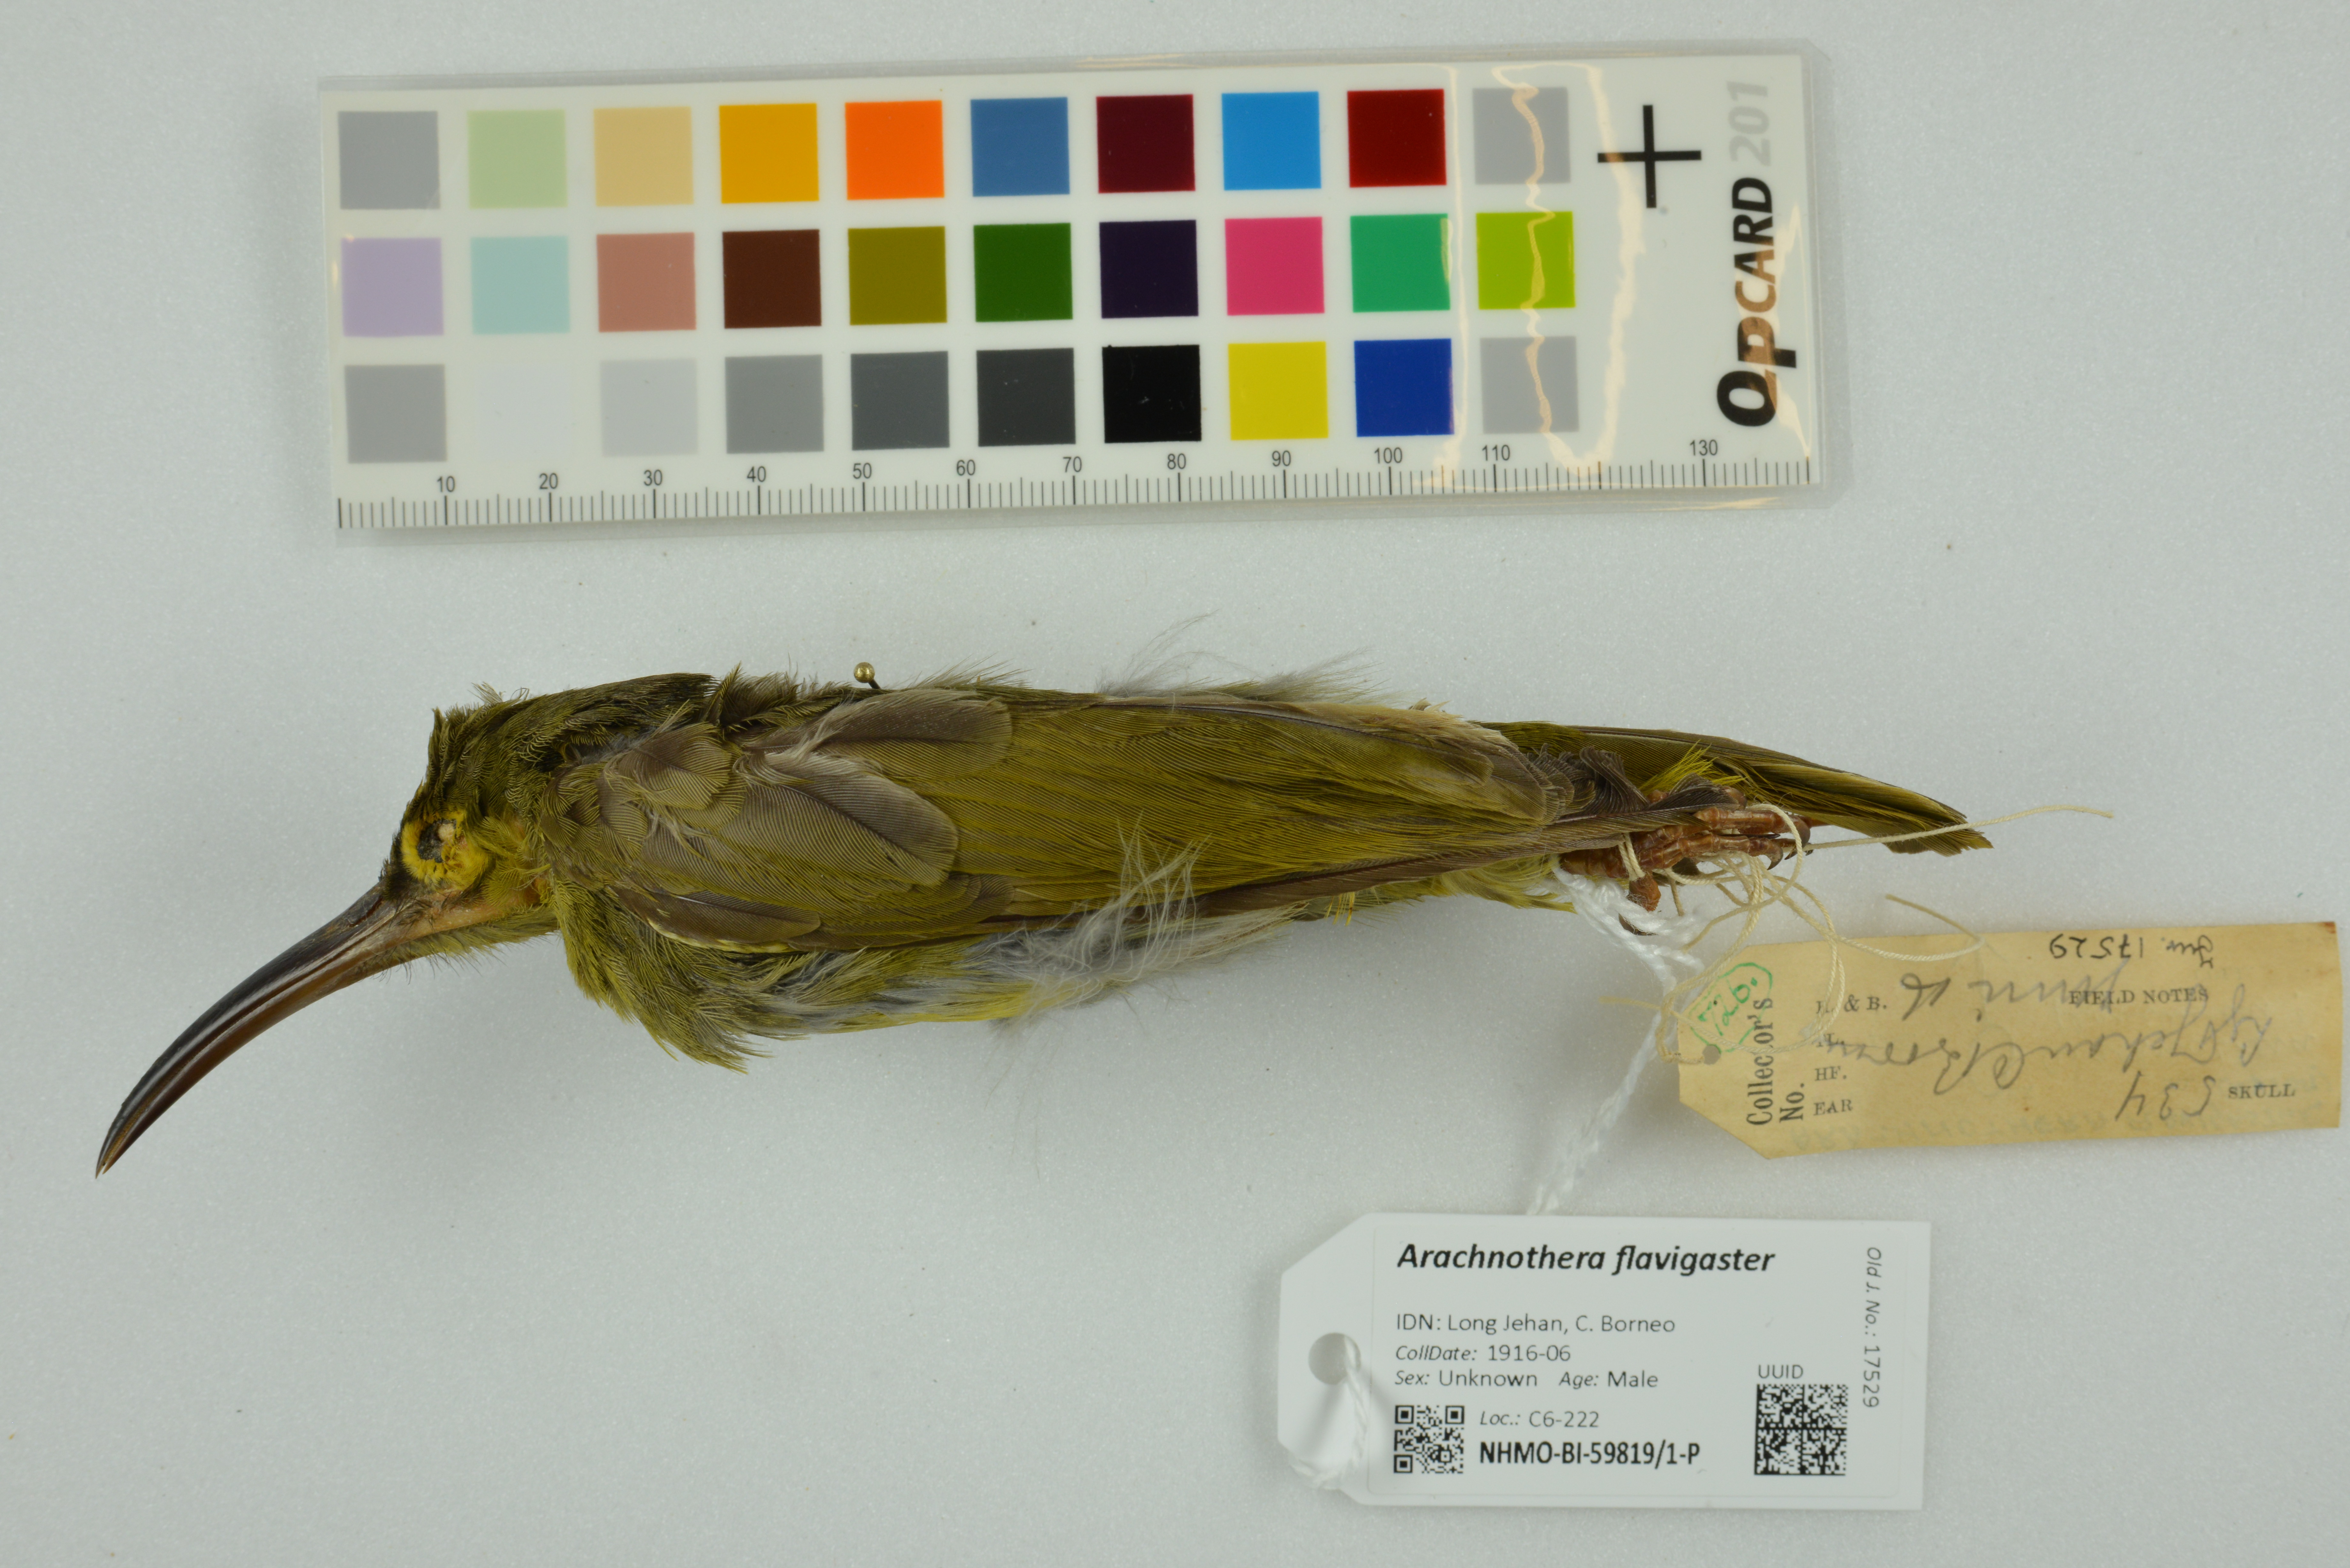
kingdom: Animalia
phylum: Chordata
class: Aves
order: Passeriformes
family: Nectariniidae
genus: Arachnothera
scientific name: Arachnothera flavigaster
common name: Spectacled spiderhunter
